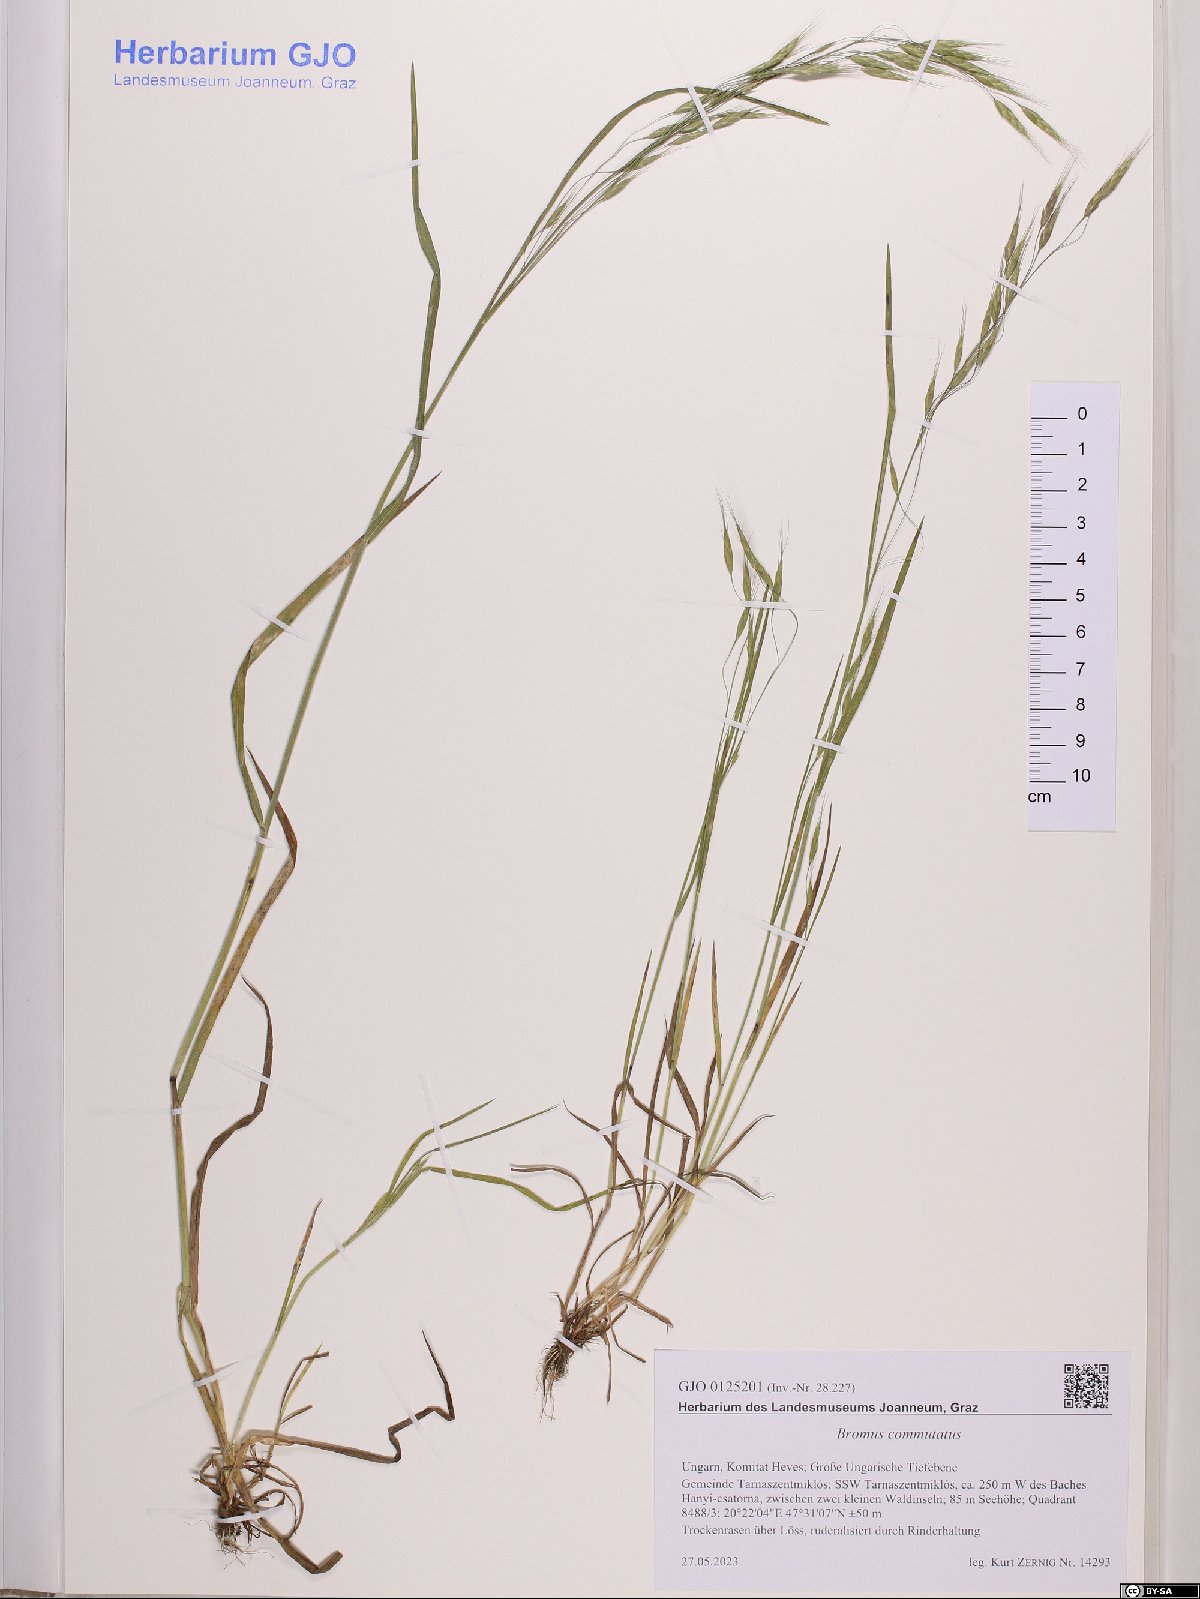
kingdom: Plantae
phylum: Tracheophyta
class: Liliopsida
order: Poales
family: Poaceae
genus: Bromus
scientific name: Bromus commutatus
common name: Meadow brome
